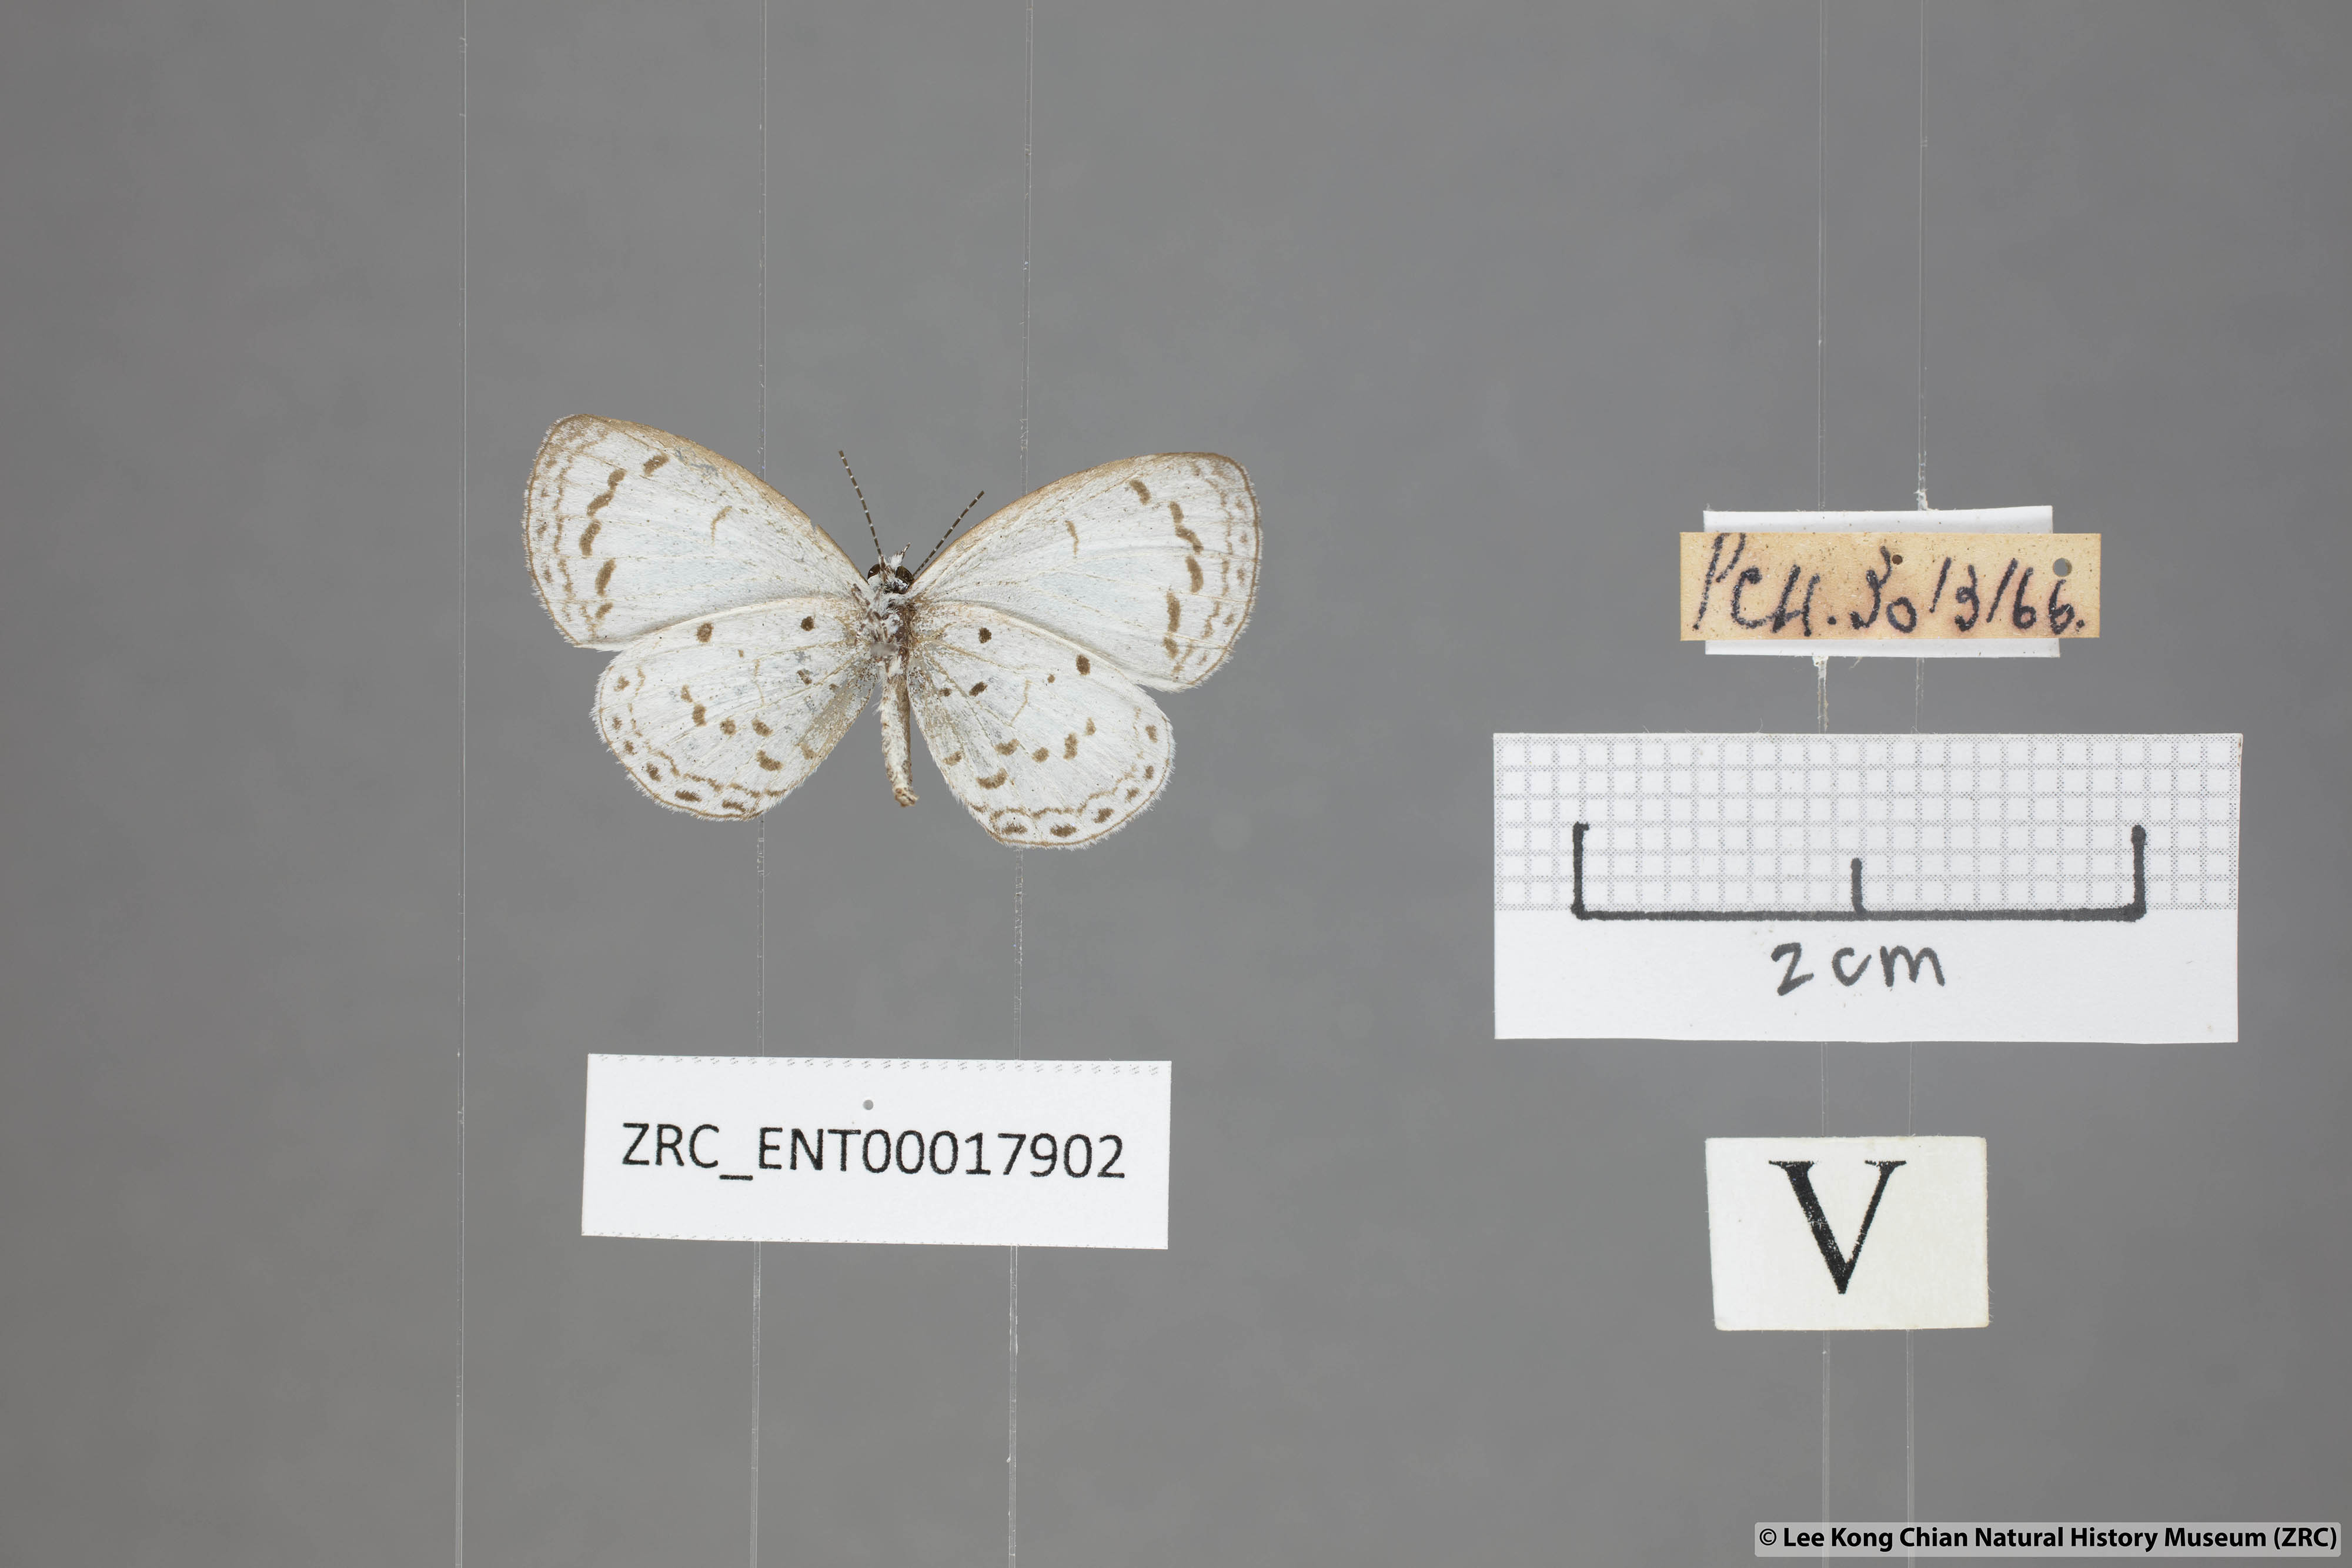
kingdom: Animalia
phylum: Arthropoda
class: Insecta
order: Lepidoptera
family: Lycaenidae
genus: Oreolyce
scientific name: Oreolyce
